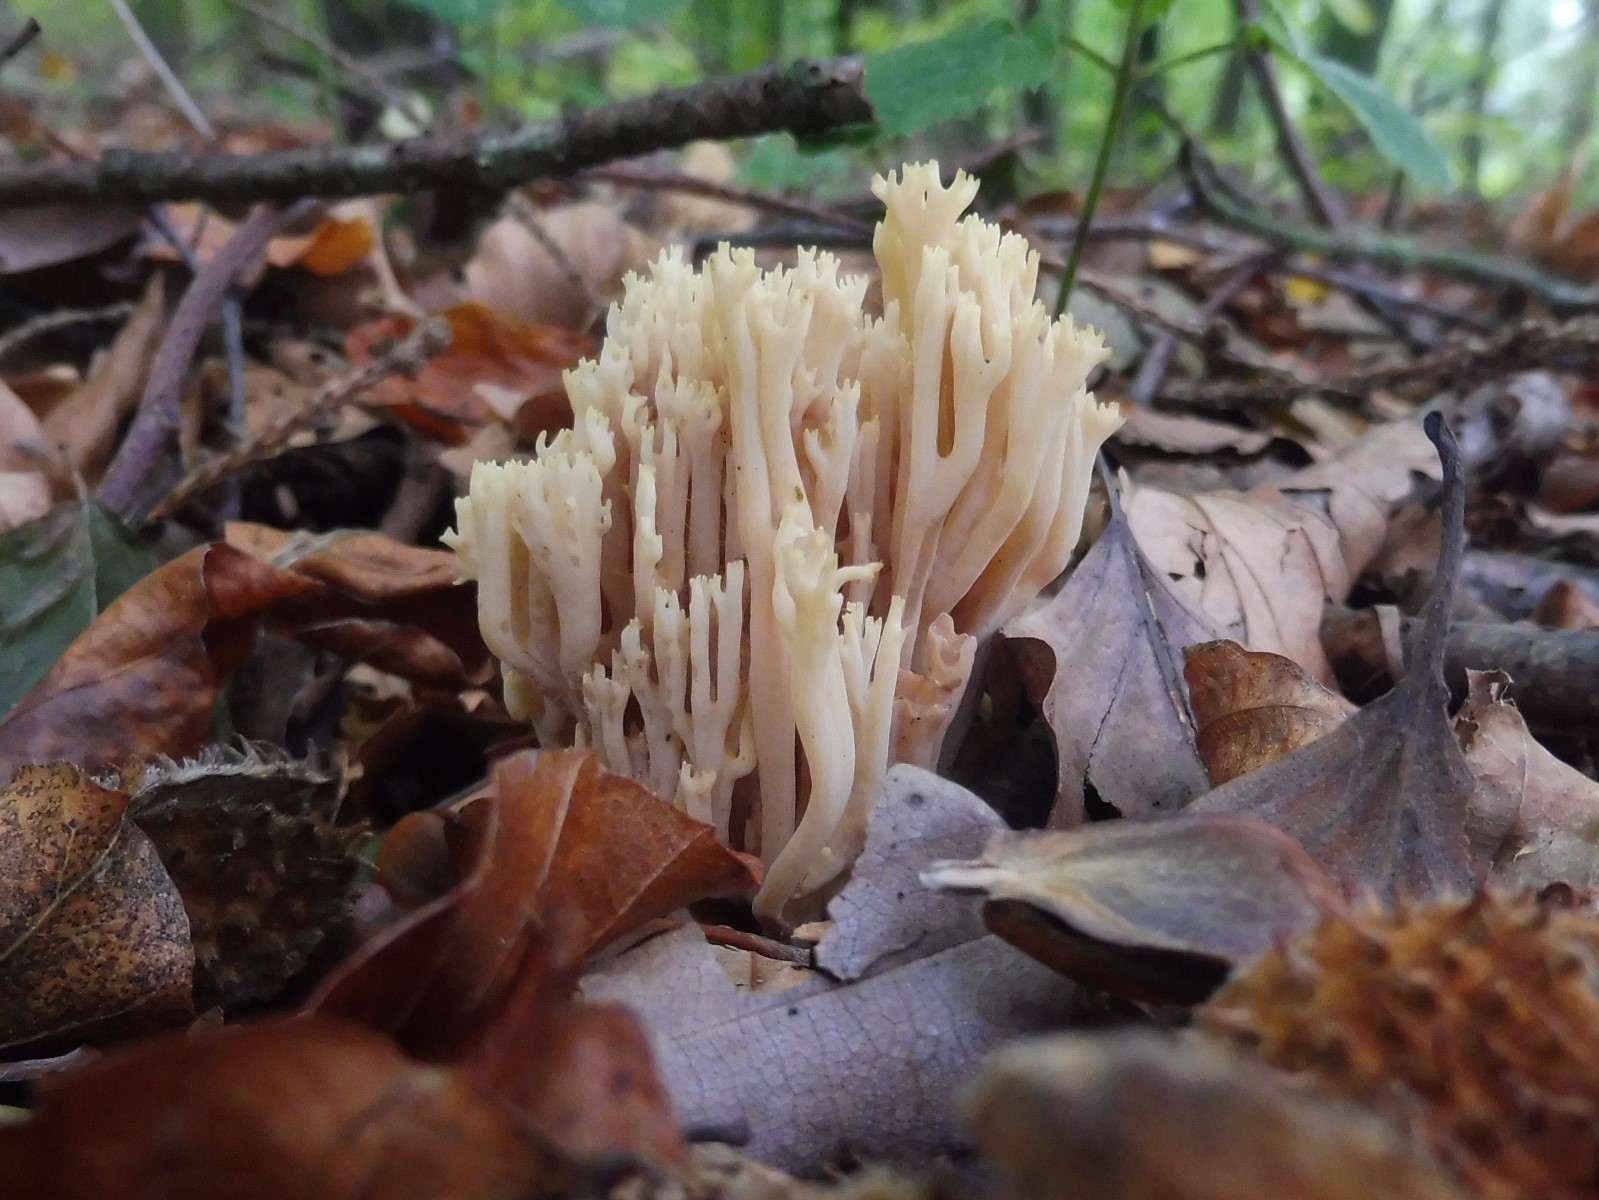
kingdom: Fungi
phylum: Basidiomycota
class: Agaricomycetes
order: Gomphales
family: Gomphaceae
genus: Ramaria
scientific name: Ramaria stricta
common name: rank koralsvamp
